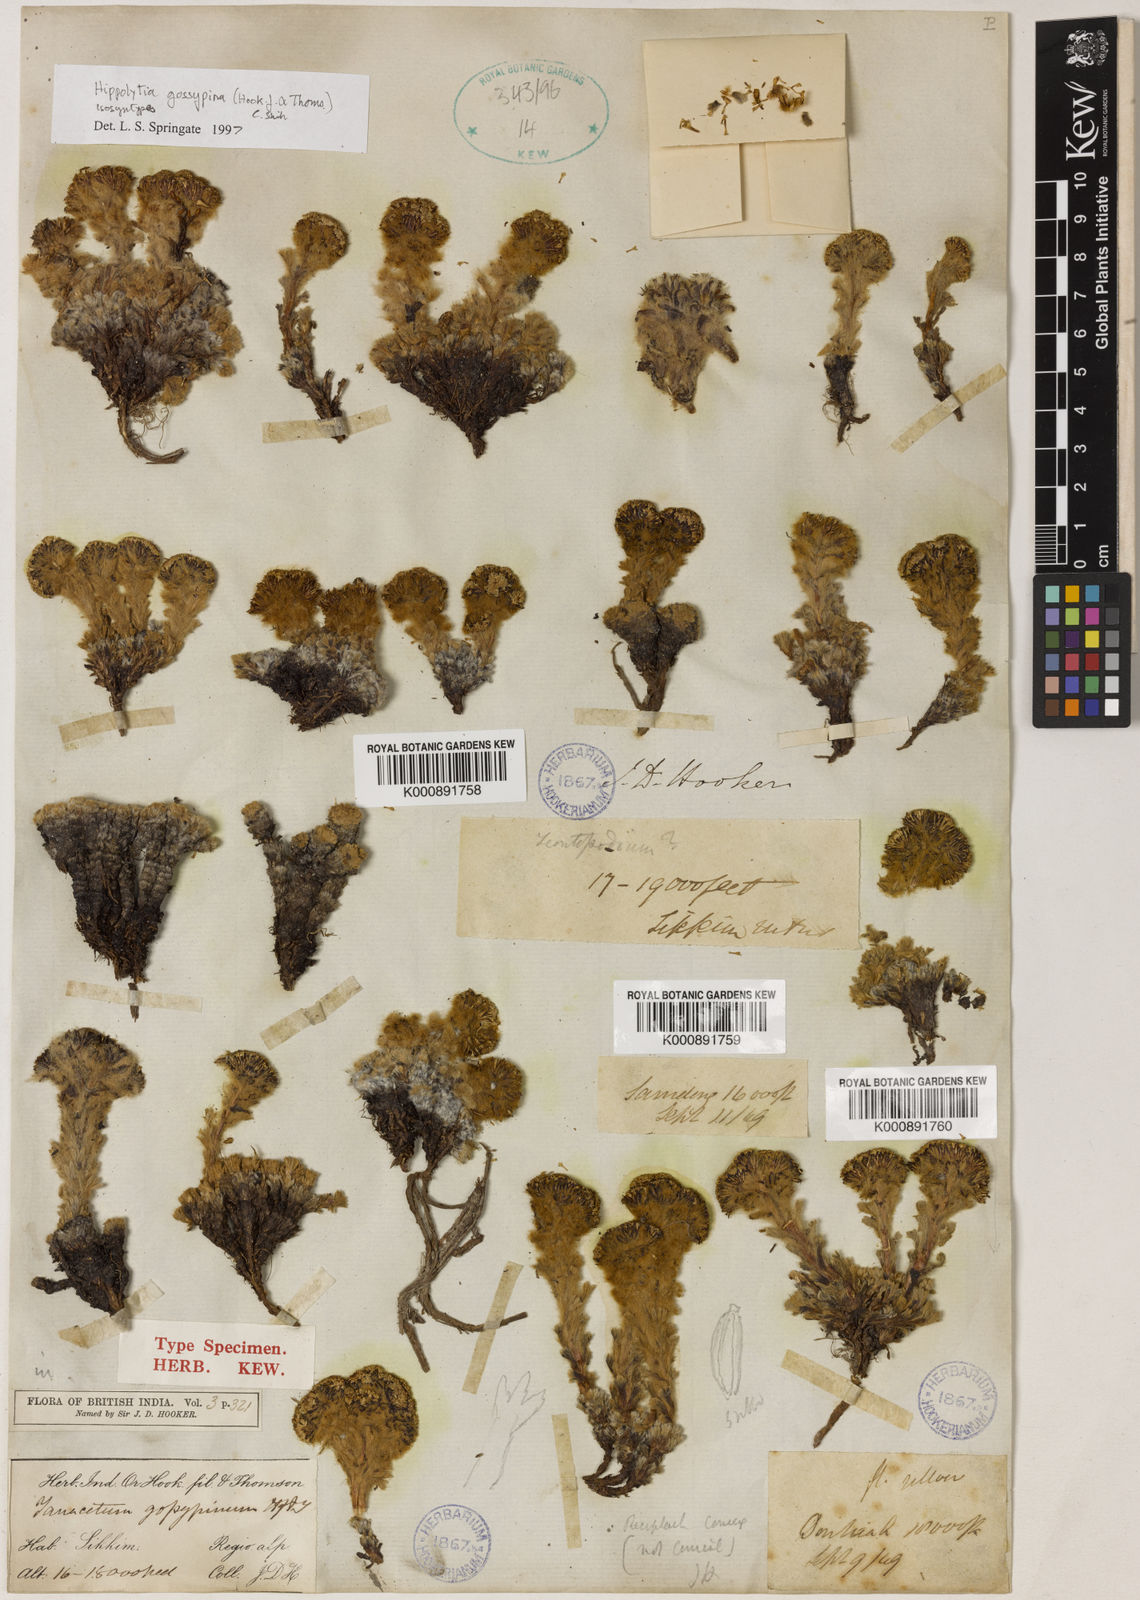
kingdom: Plantae
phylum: Tracheophyta
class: Magnoliopsida
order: Asterales
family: Asteraceae
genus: Hippolytia
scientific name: Hippolytia gossypina
